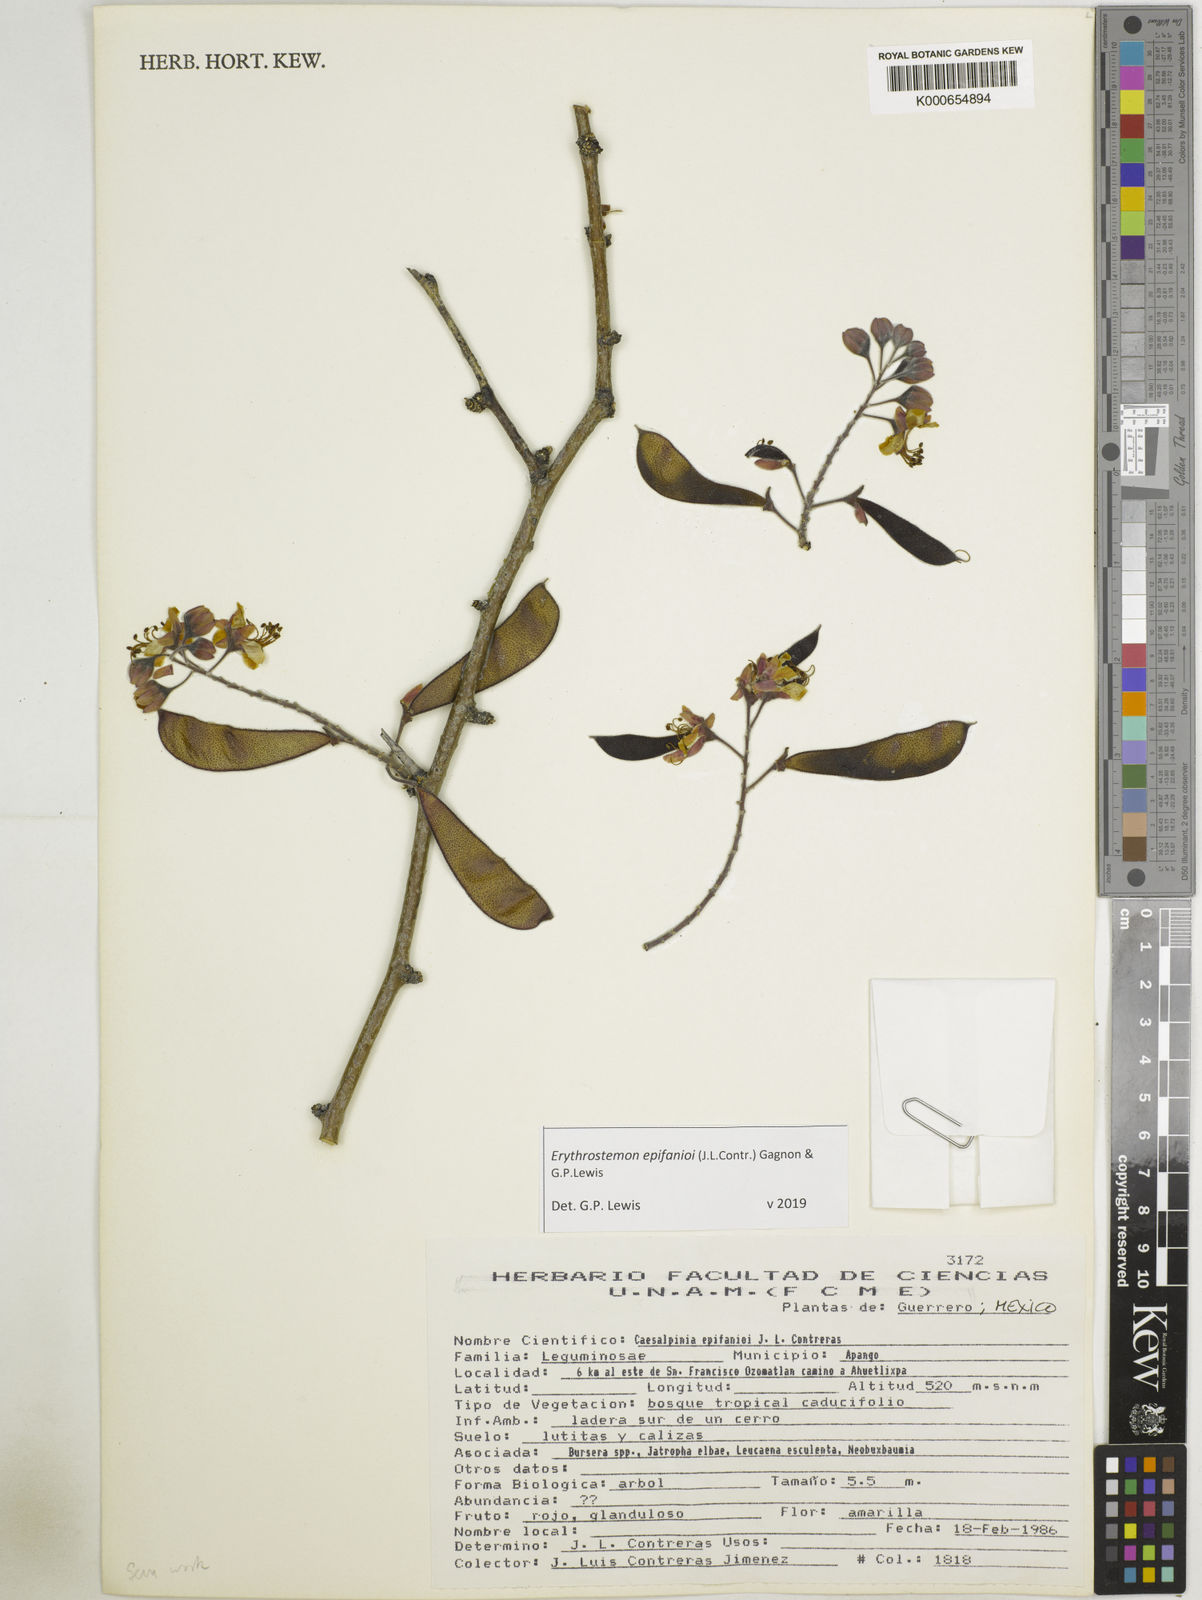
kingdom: Plantae
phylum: Tracheophyta
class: Magnoliopsida
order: Fabales
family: Fabaceae
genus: Erythrostemon
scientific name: Erythrostemon epifanioi
